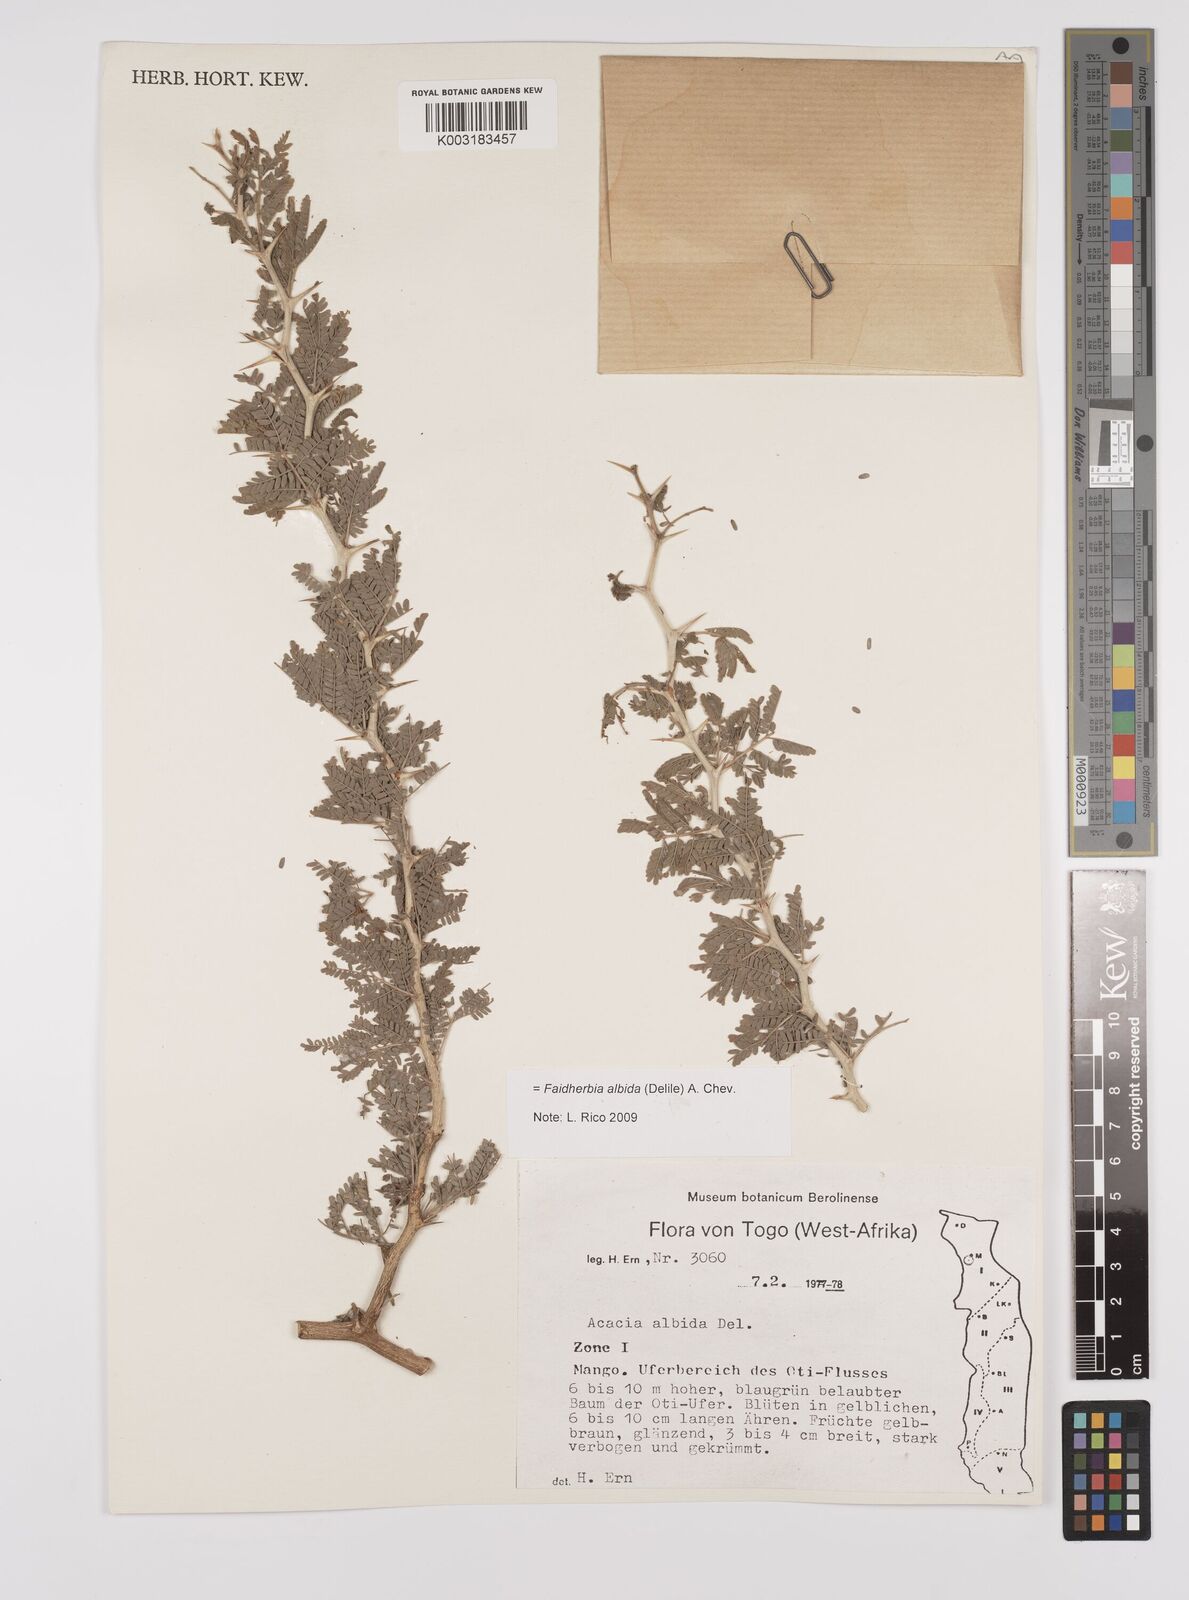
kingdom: Plantae
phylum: Tracheophyta
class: Magnoliopsida
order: Fabales
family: Fabaceae
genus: Faidherbia
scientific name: Faidherbia albida
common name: Anatree
